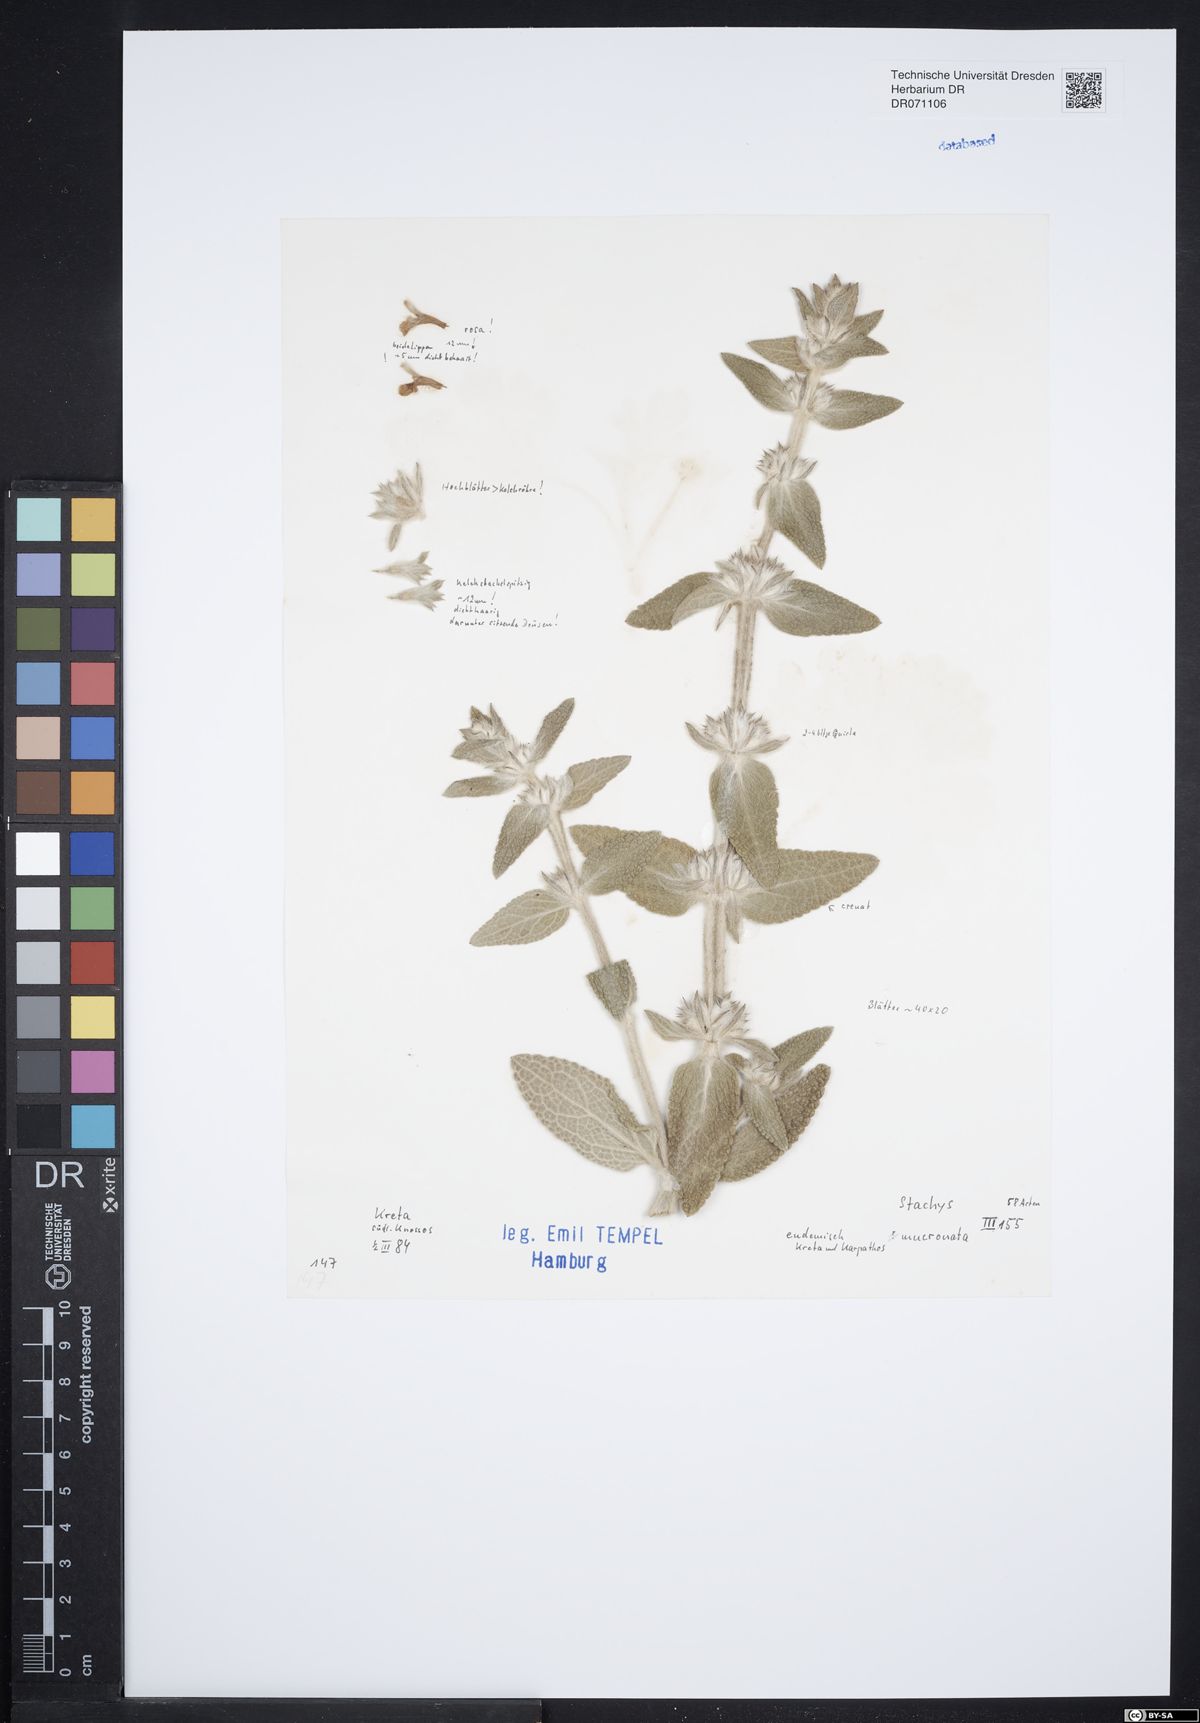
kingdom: Plantae
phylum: Tracheophyta
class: Magnoliopsida
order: Fabales
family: Fabaceae
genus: Lotus
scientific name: Lotus tetragonolobus
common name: Asparagus-pea
